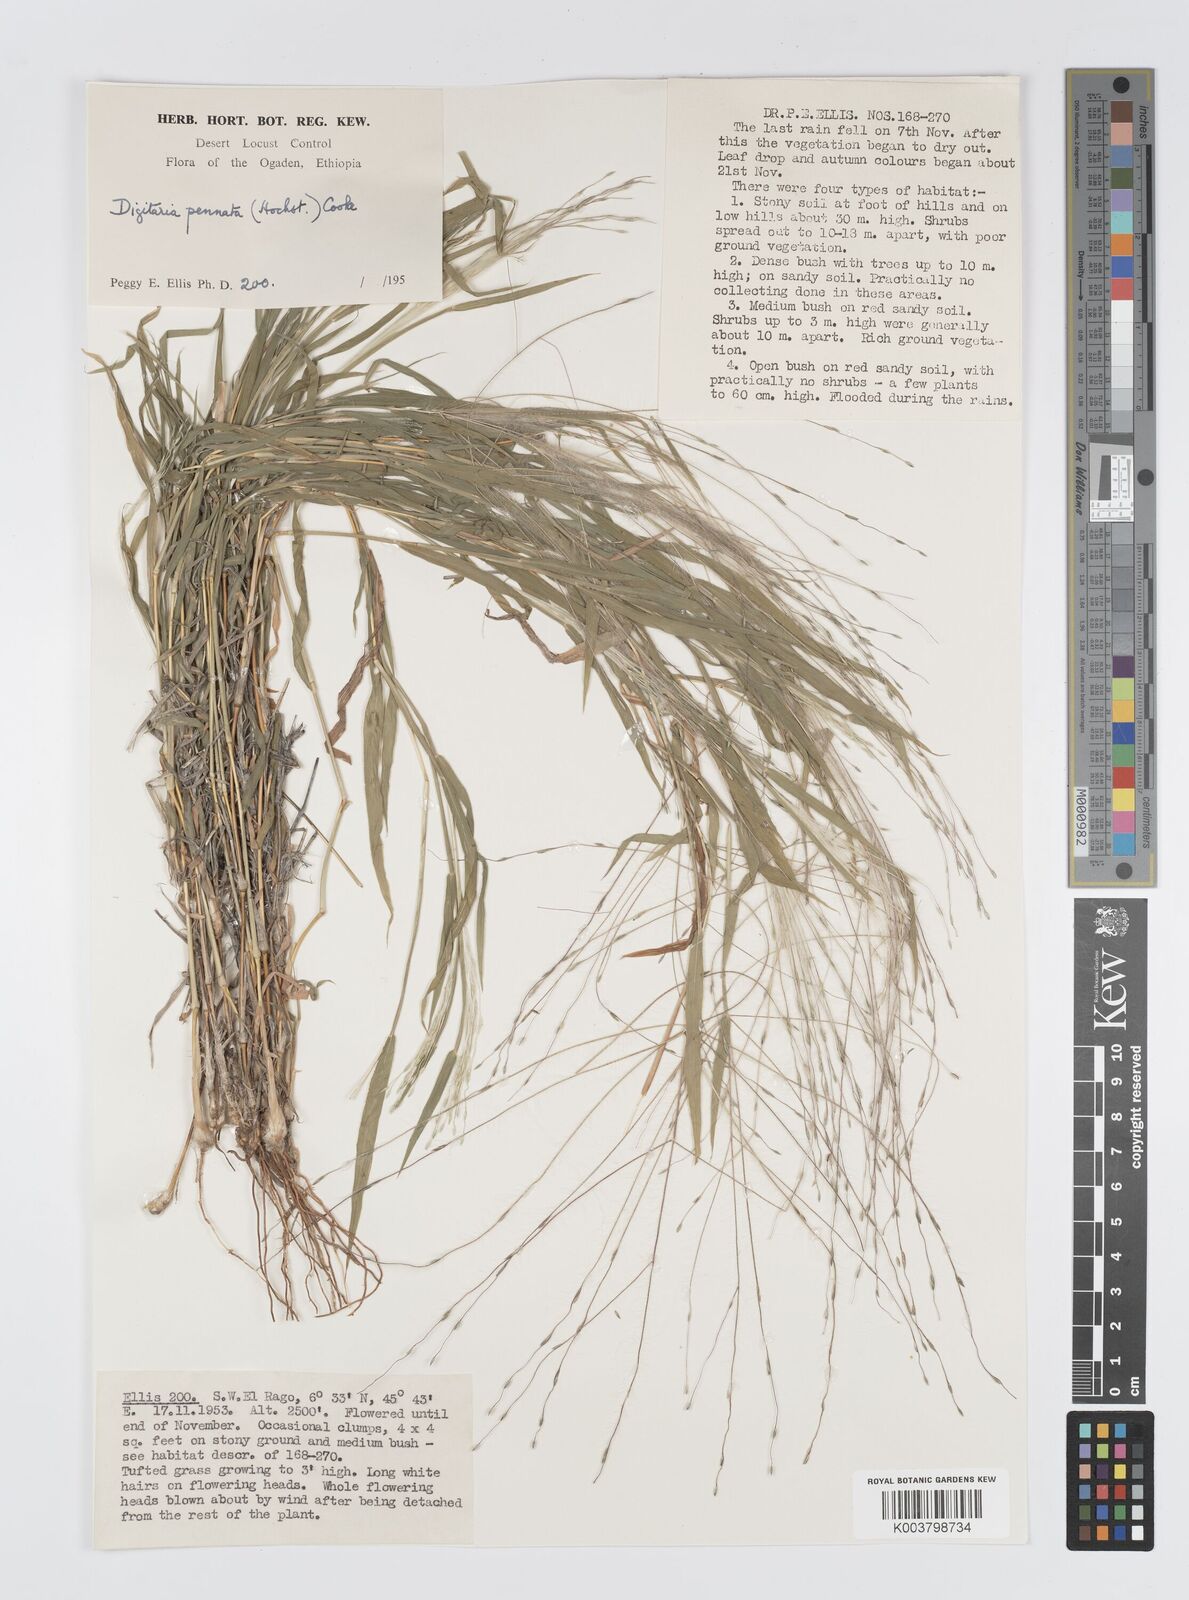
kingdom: Plantae
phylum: Tracheophyta
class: Liliopsida
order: Poales
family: Poaceae
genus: Digitaria
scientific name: Digitaria pennata
